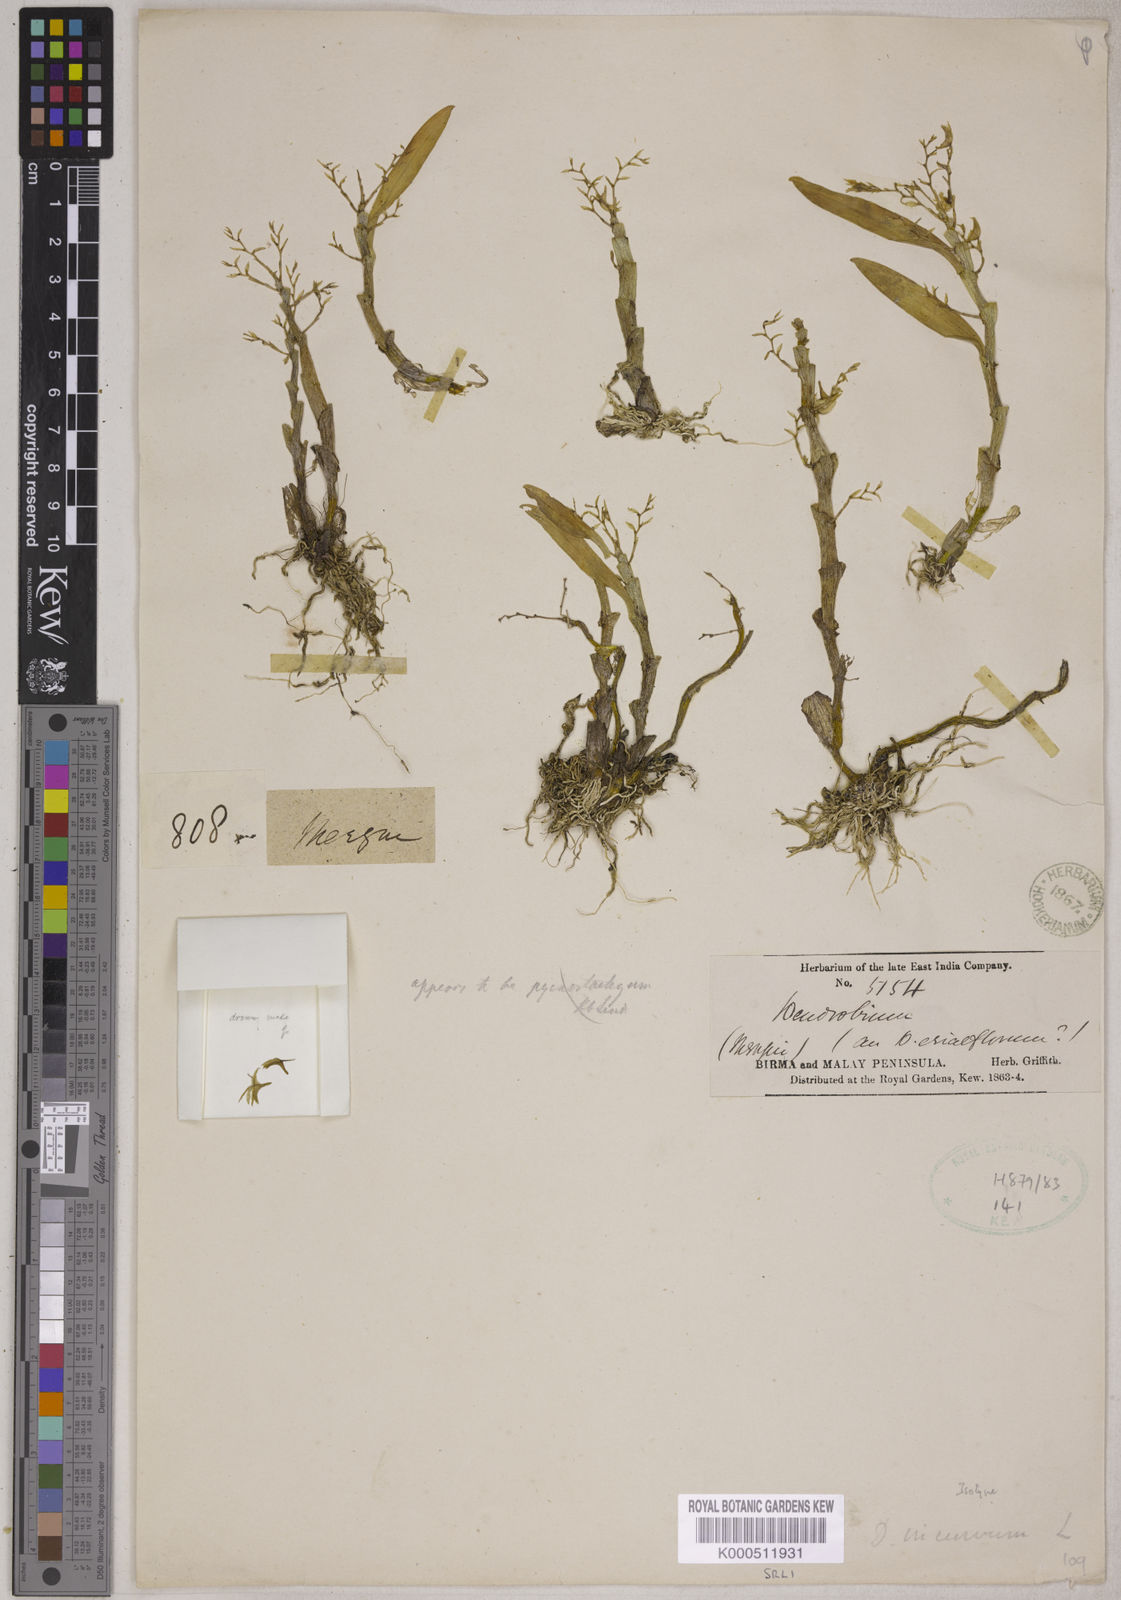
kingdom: Plantae
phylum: Tracheophyta
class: Liliopsida
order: Asparagales
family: Orchidaceae
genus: Dendrobium
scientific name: Dendrobium incurvum
